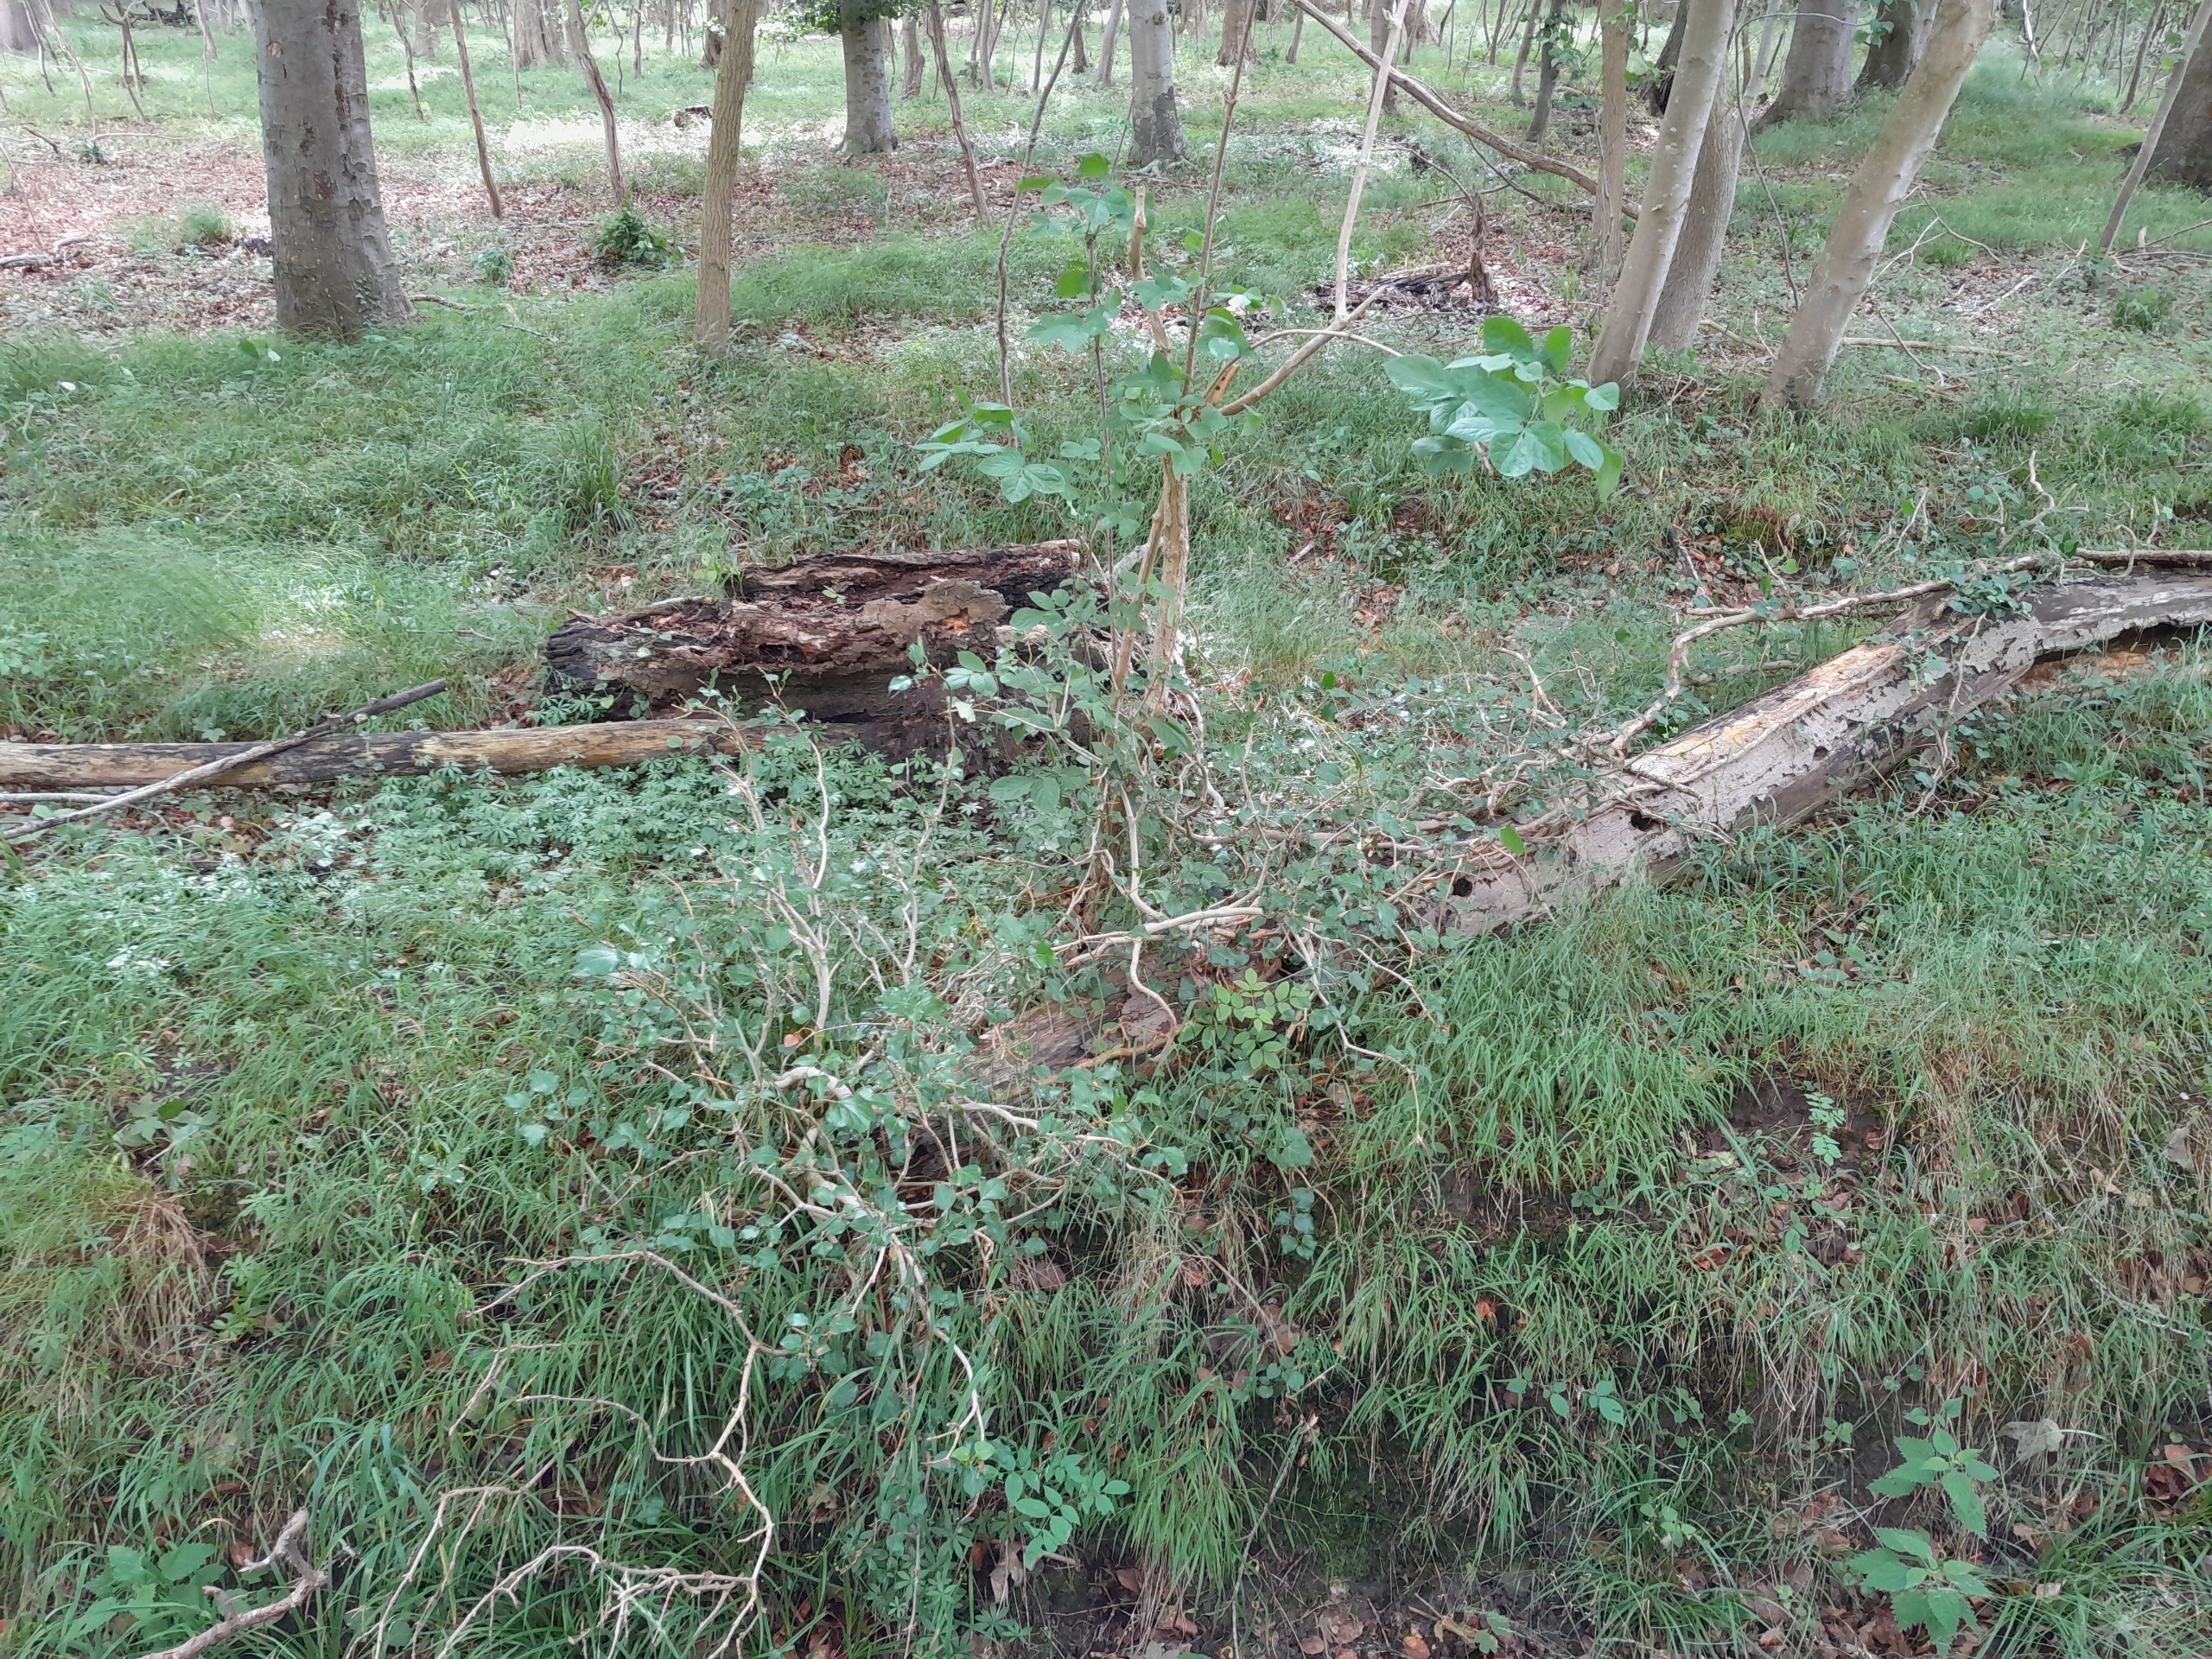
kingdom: Plantae
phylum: Tracheophyta
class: Magnoliopsida
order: Apiales
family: Araliaceae
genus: Hedera
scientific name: Hedera helix
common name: Vedbend
